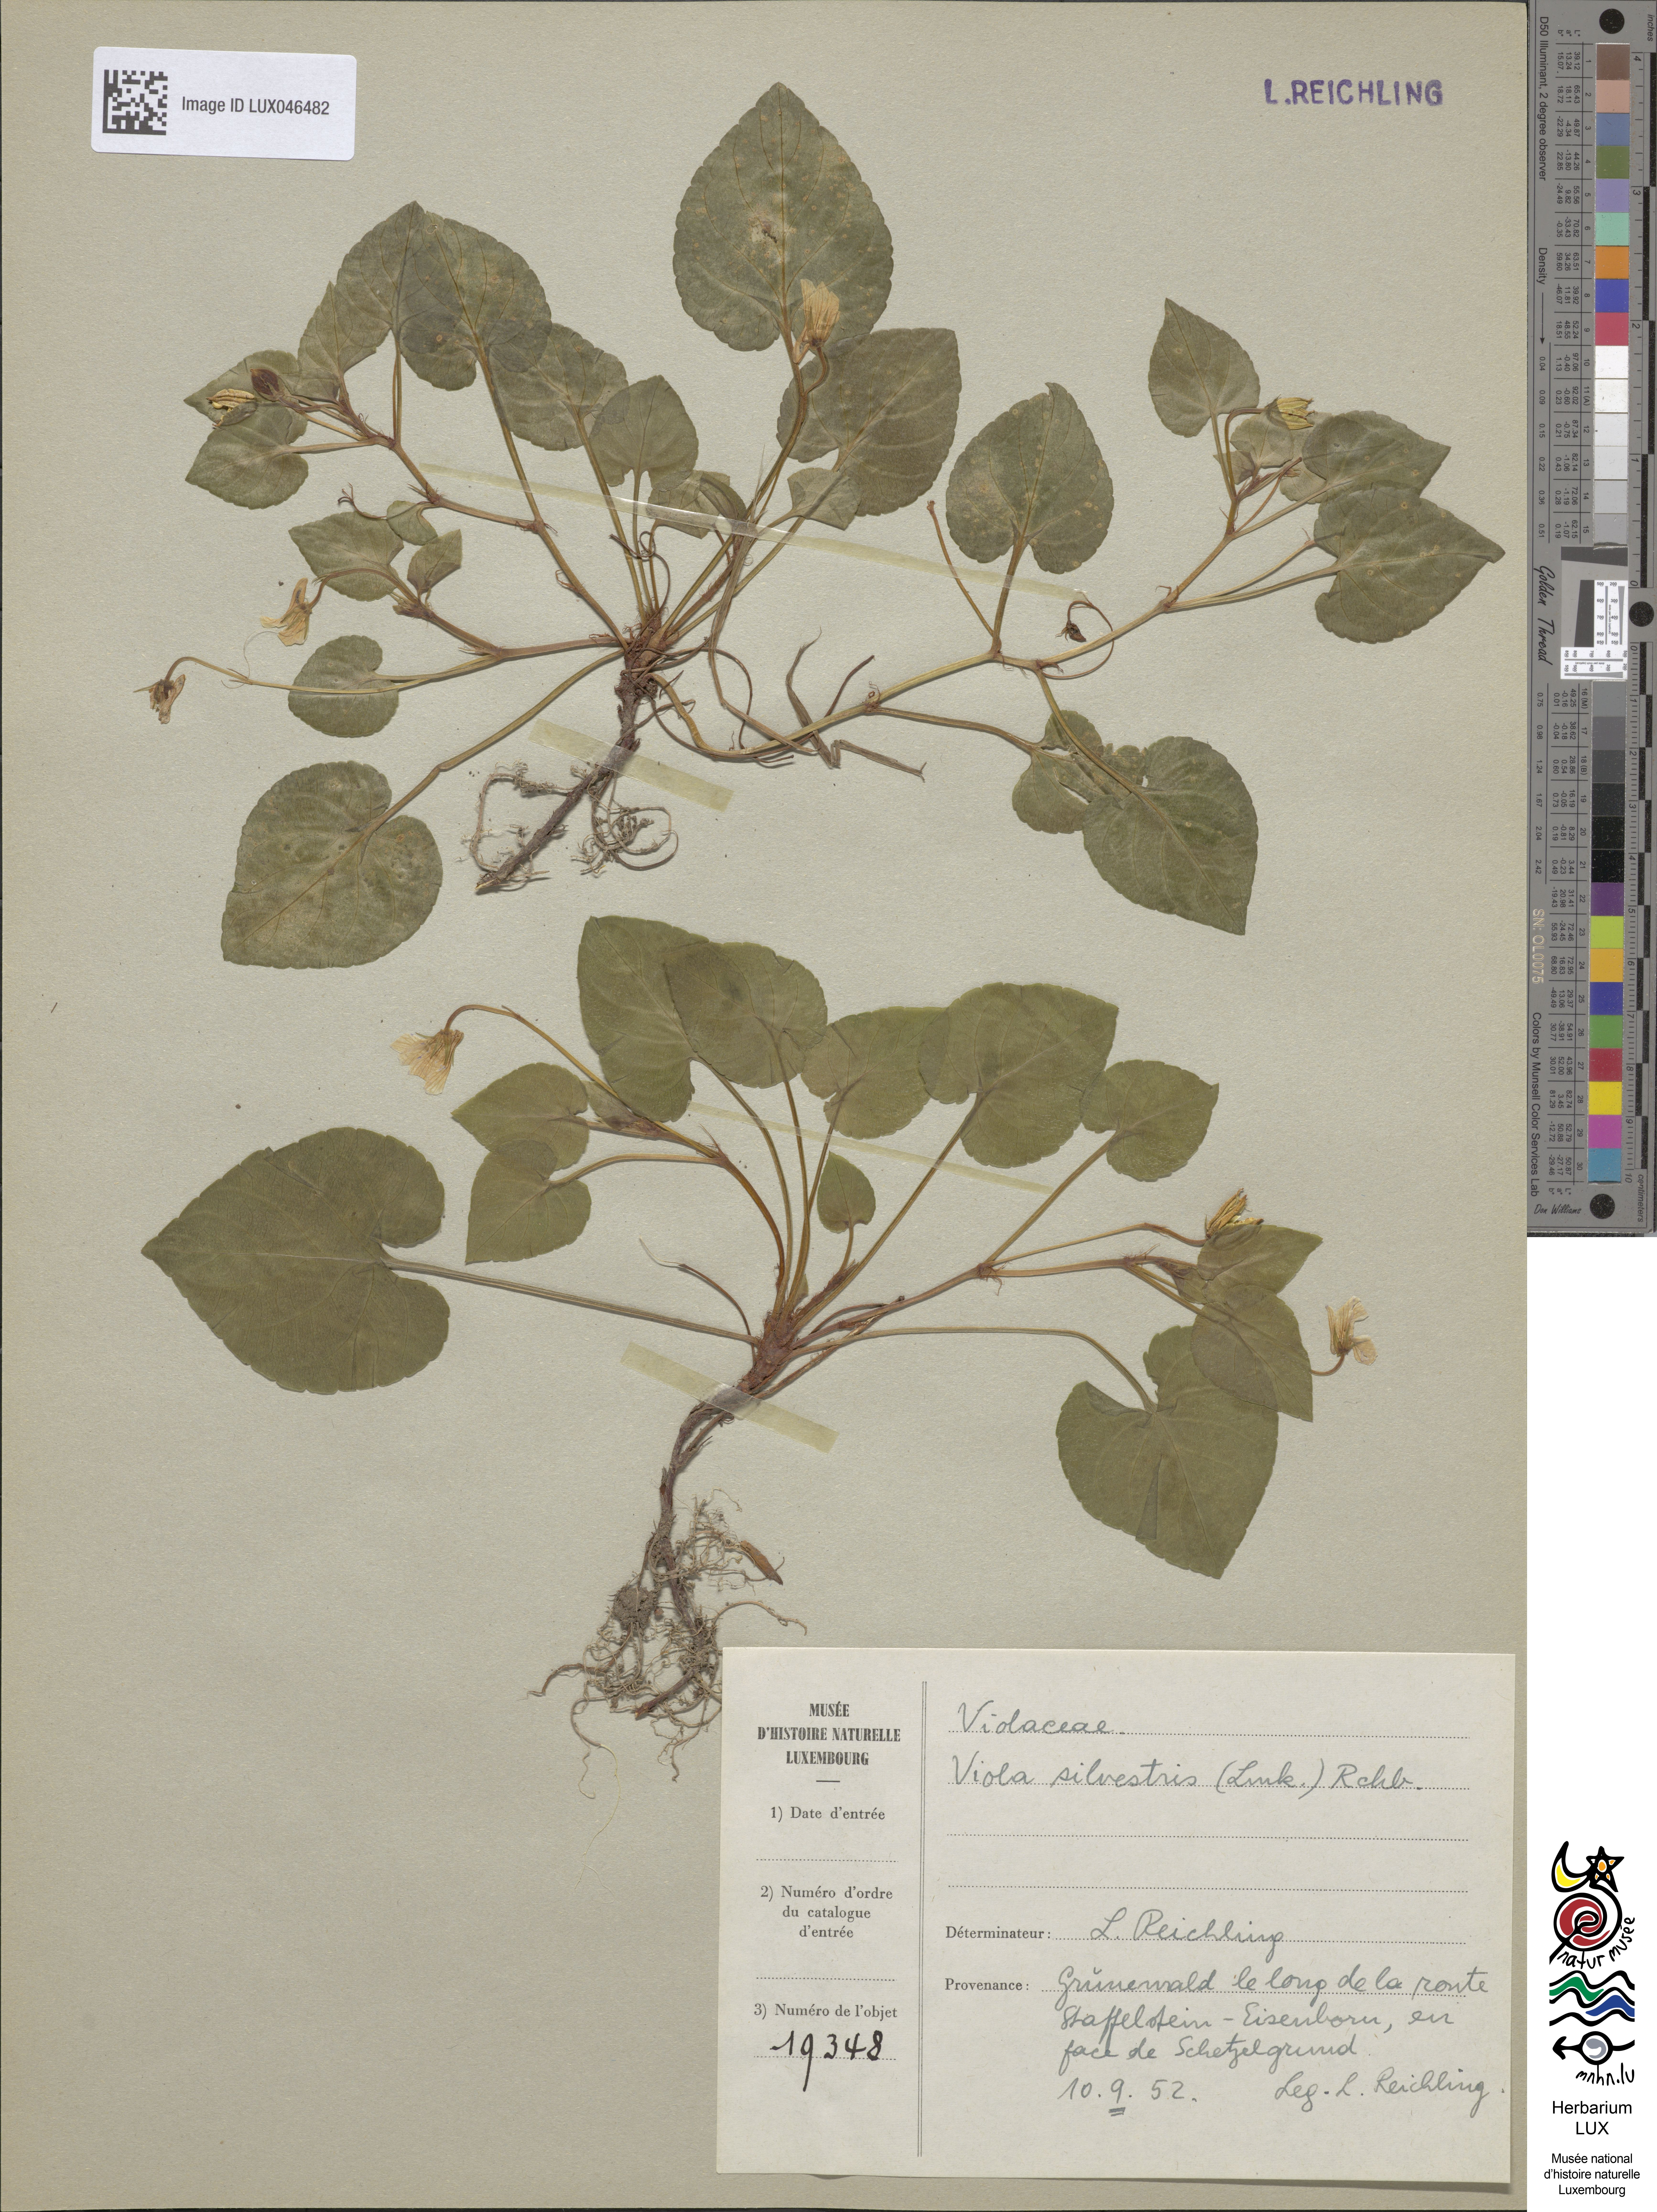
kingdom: Plantae
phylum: Tracheophyta
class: Magnoliopsida
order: Malpighiales
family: Violaceae
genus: Viola
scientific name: Viola reichenbachiana
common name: Early dog-violet
